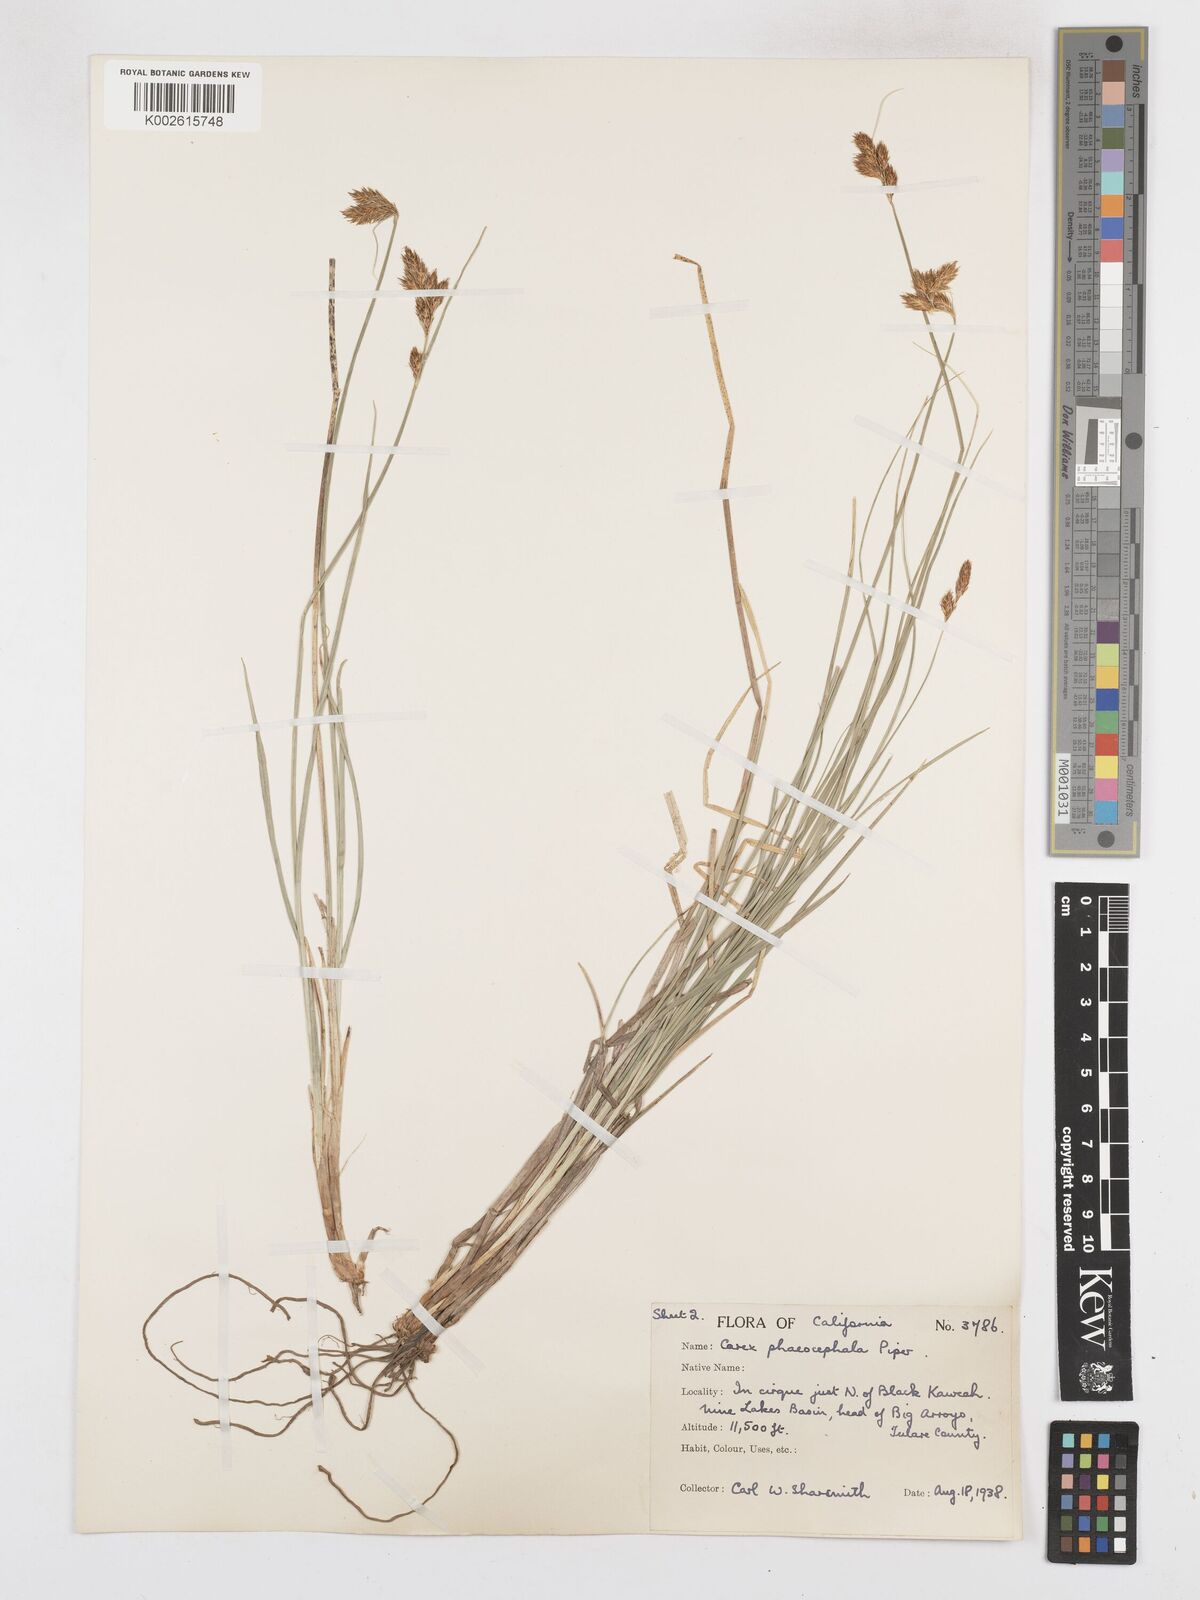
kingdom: Plantae
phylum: Tracheophyta
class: Liliopsida
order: Poales
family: Cyperaceae
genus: Carex
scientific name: Carex phaeocephala
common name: Brown-head sedge
